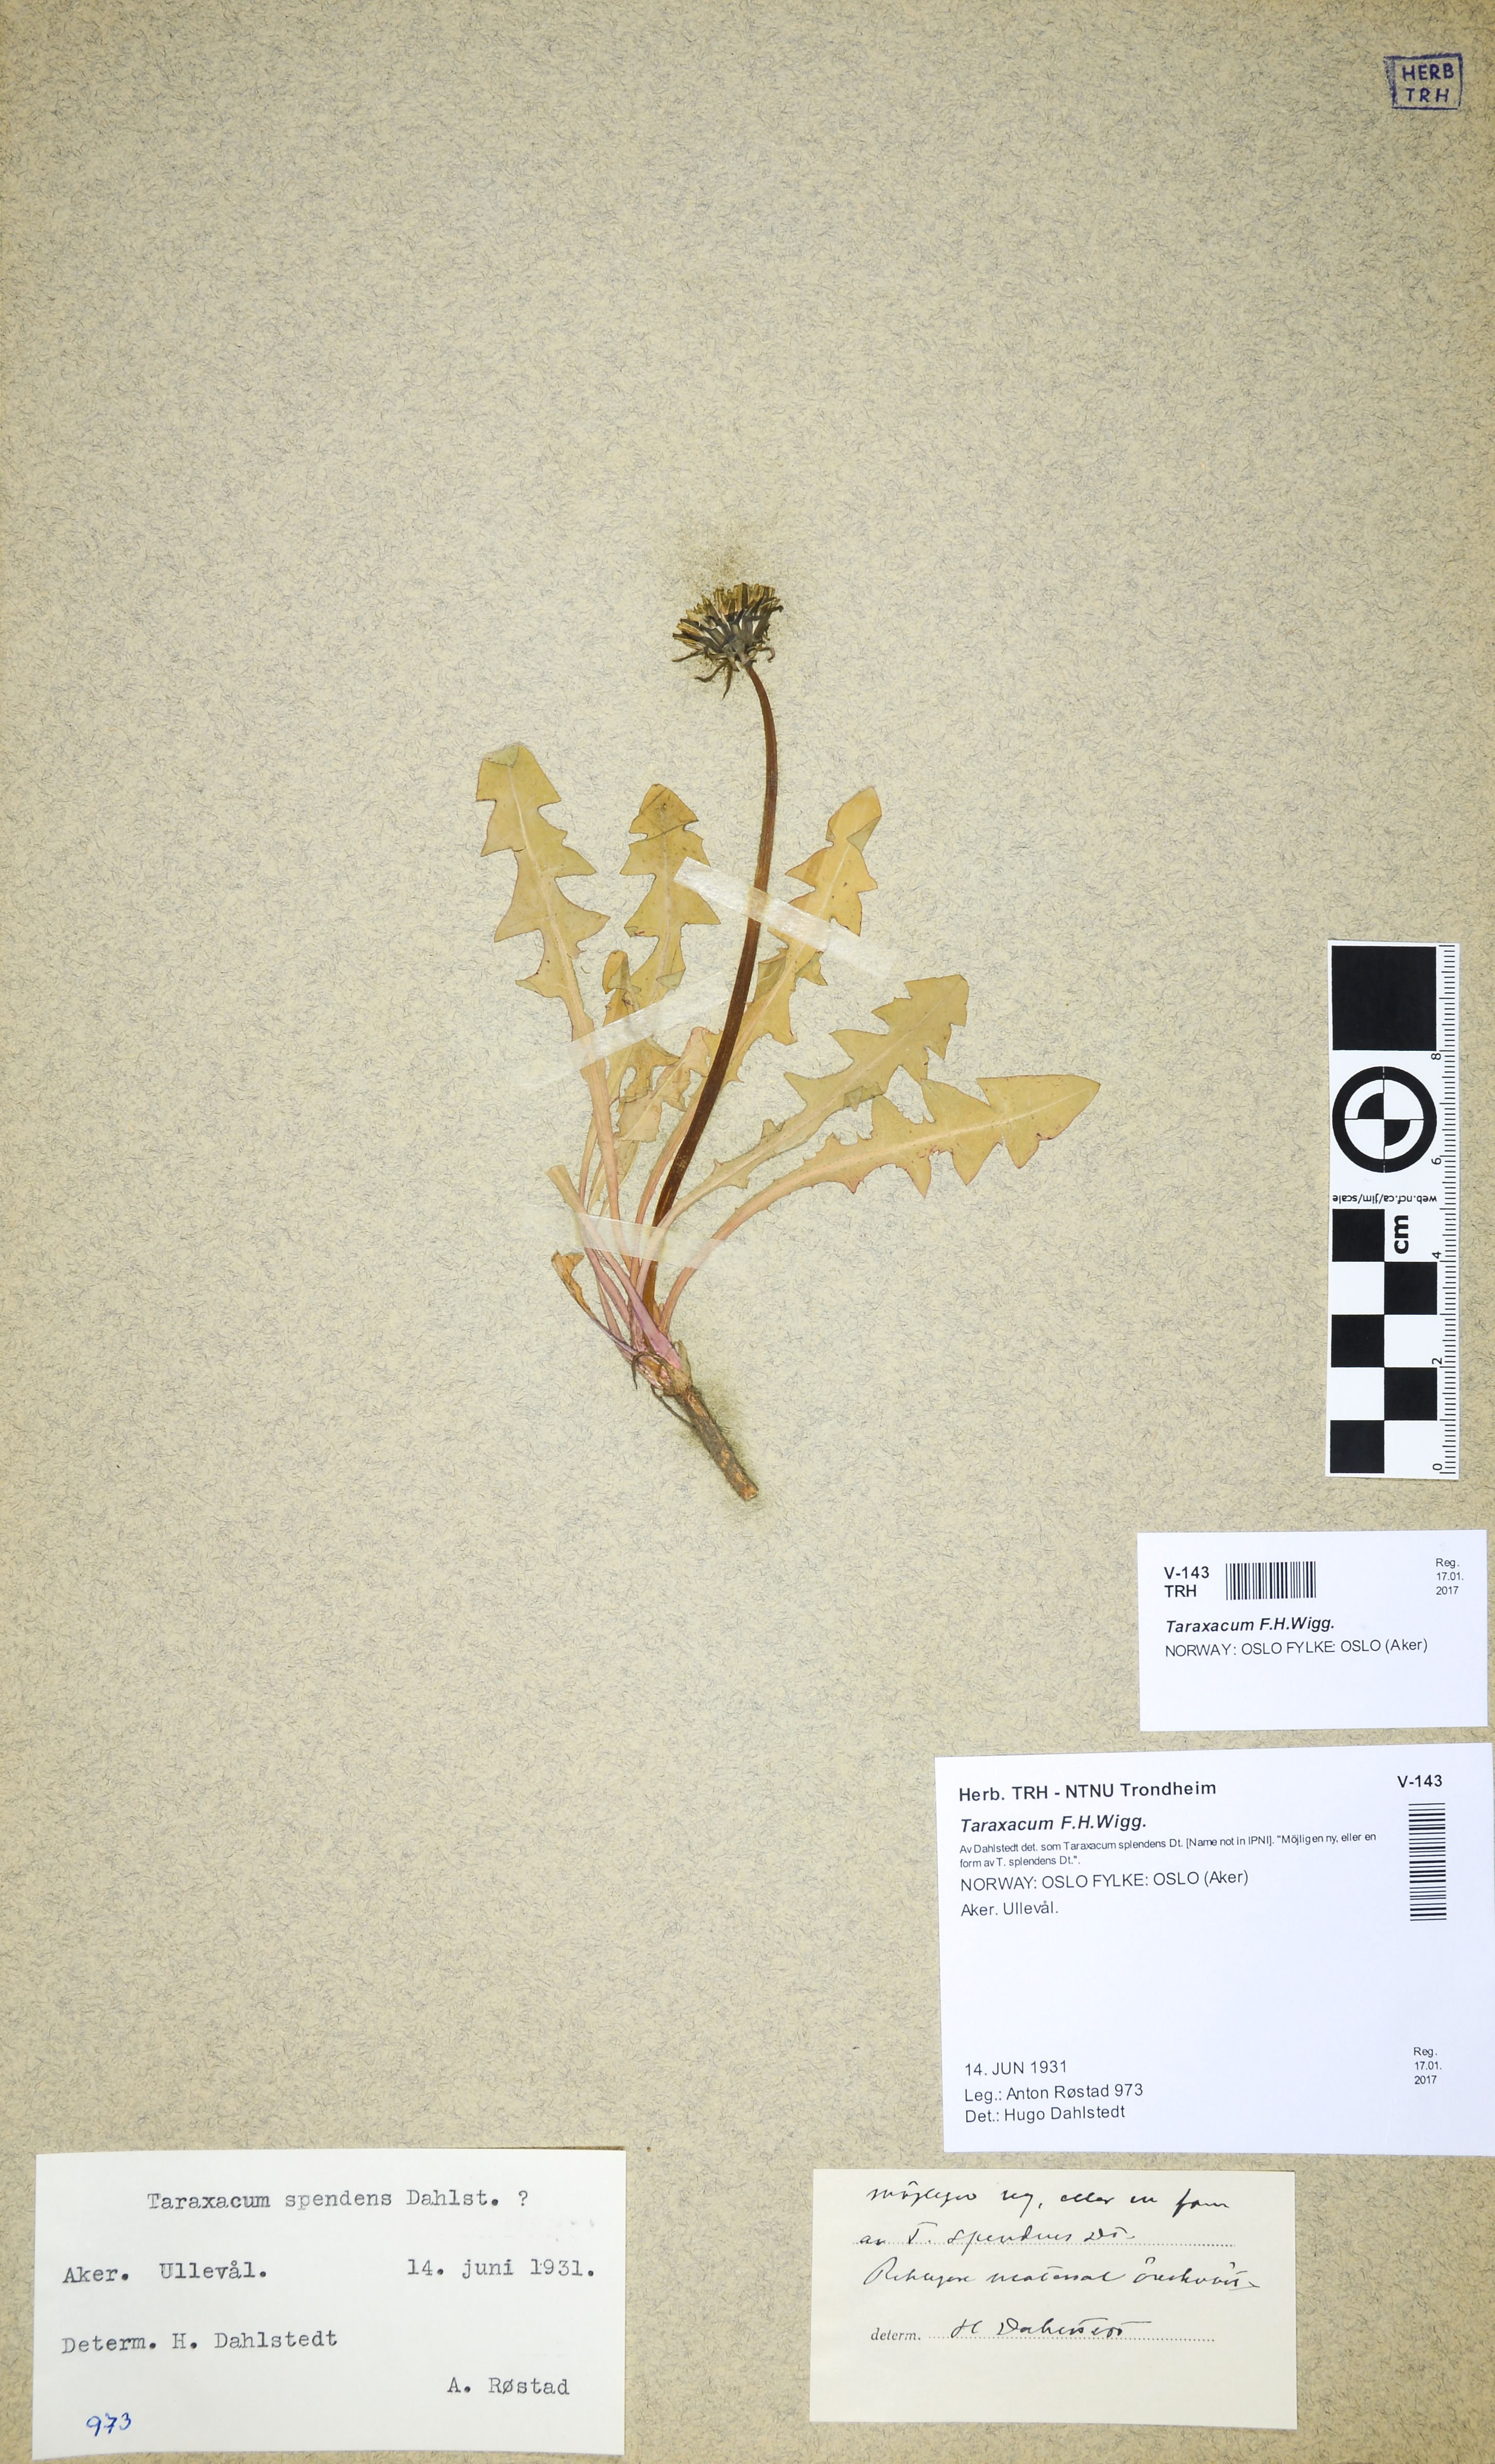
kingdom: Plantae
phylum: Tracheophyta
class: Magnoliopsida
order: Asterales
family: Asteraceae
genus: Taraxacum
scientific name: Taraxacum
